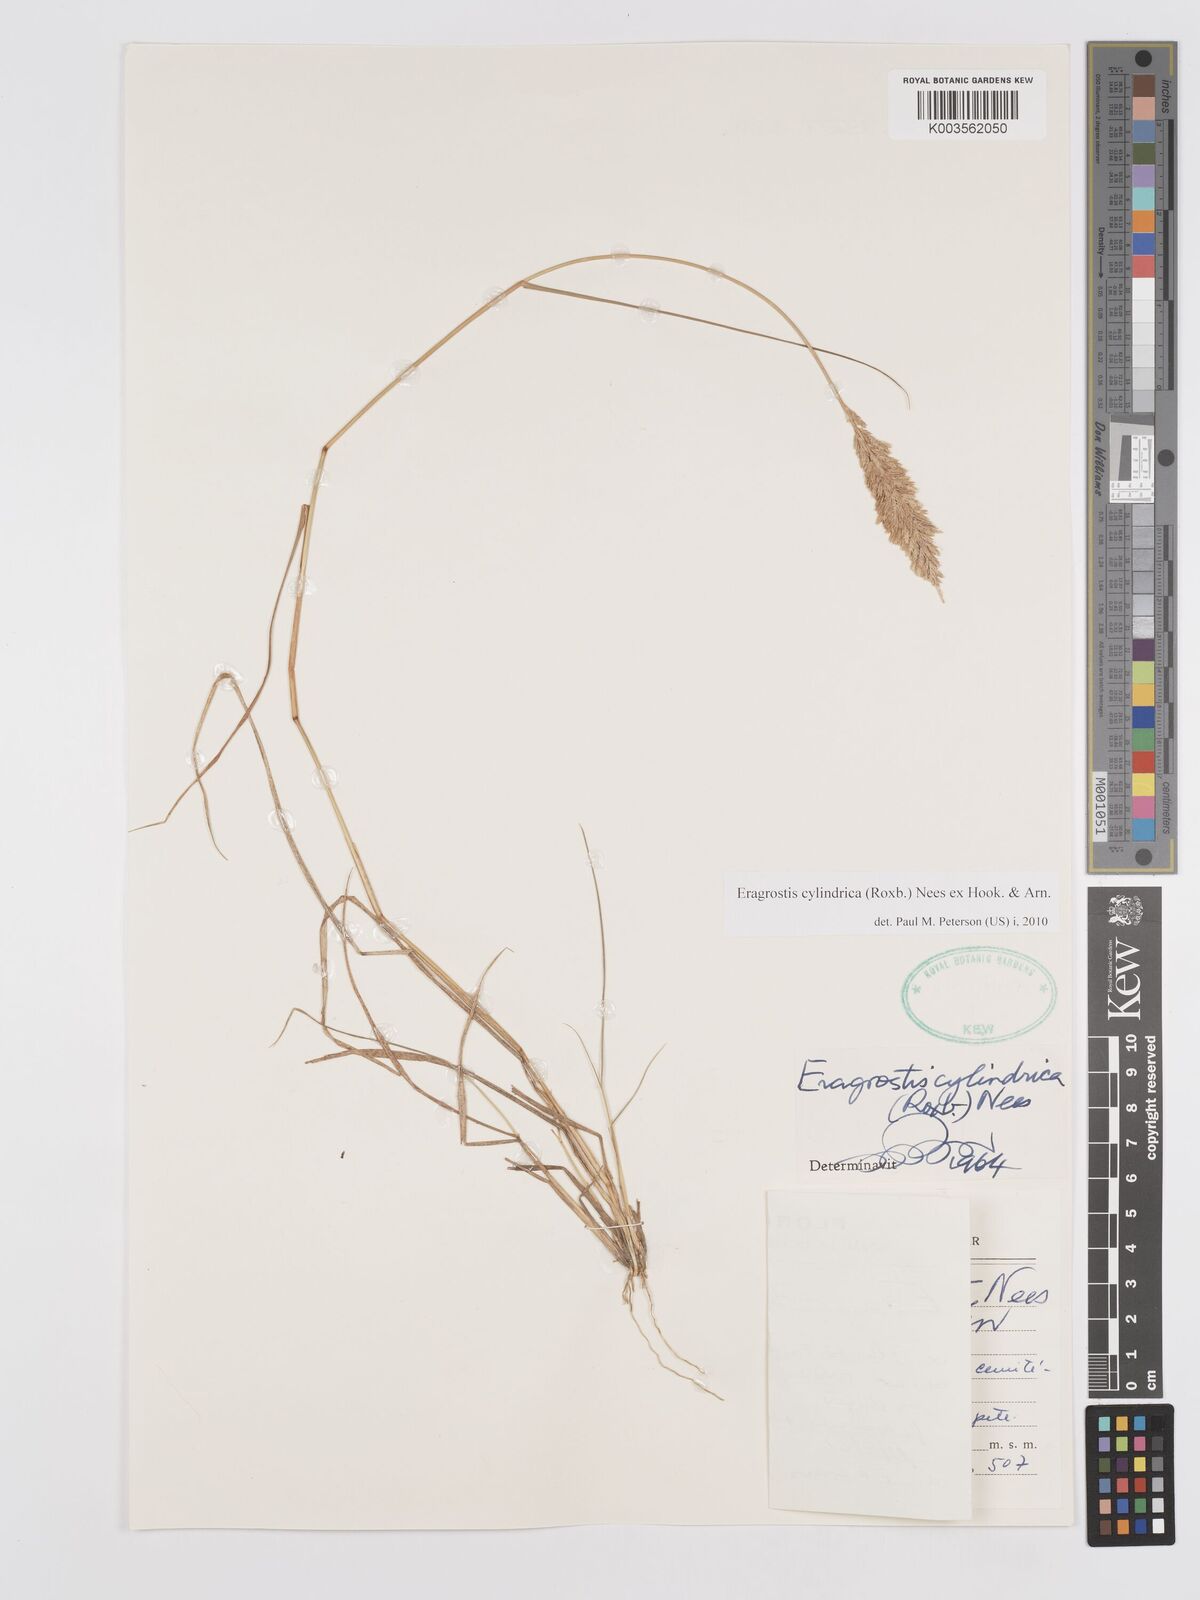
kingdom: Plantae
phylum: Tracheophyta
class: Liliopsida
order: Poales
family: Poaceae
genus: Eragrostis
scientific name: Eragrostis cylindrica
